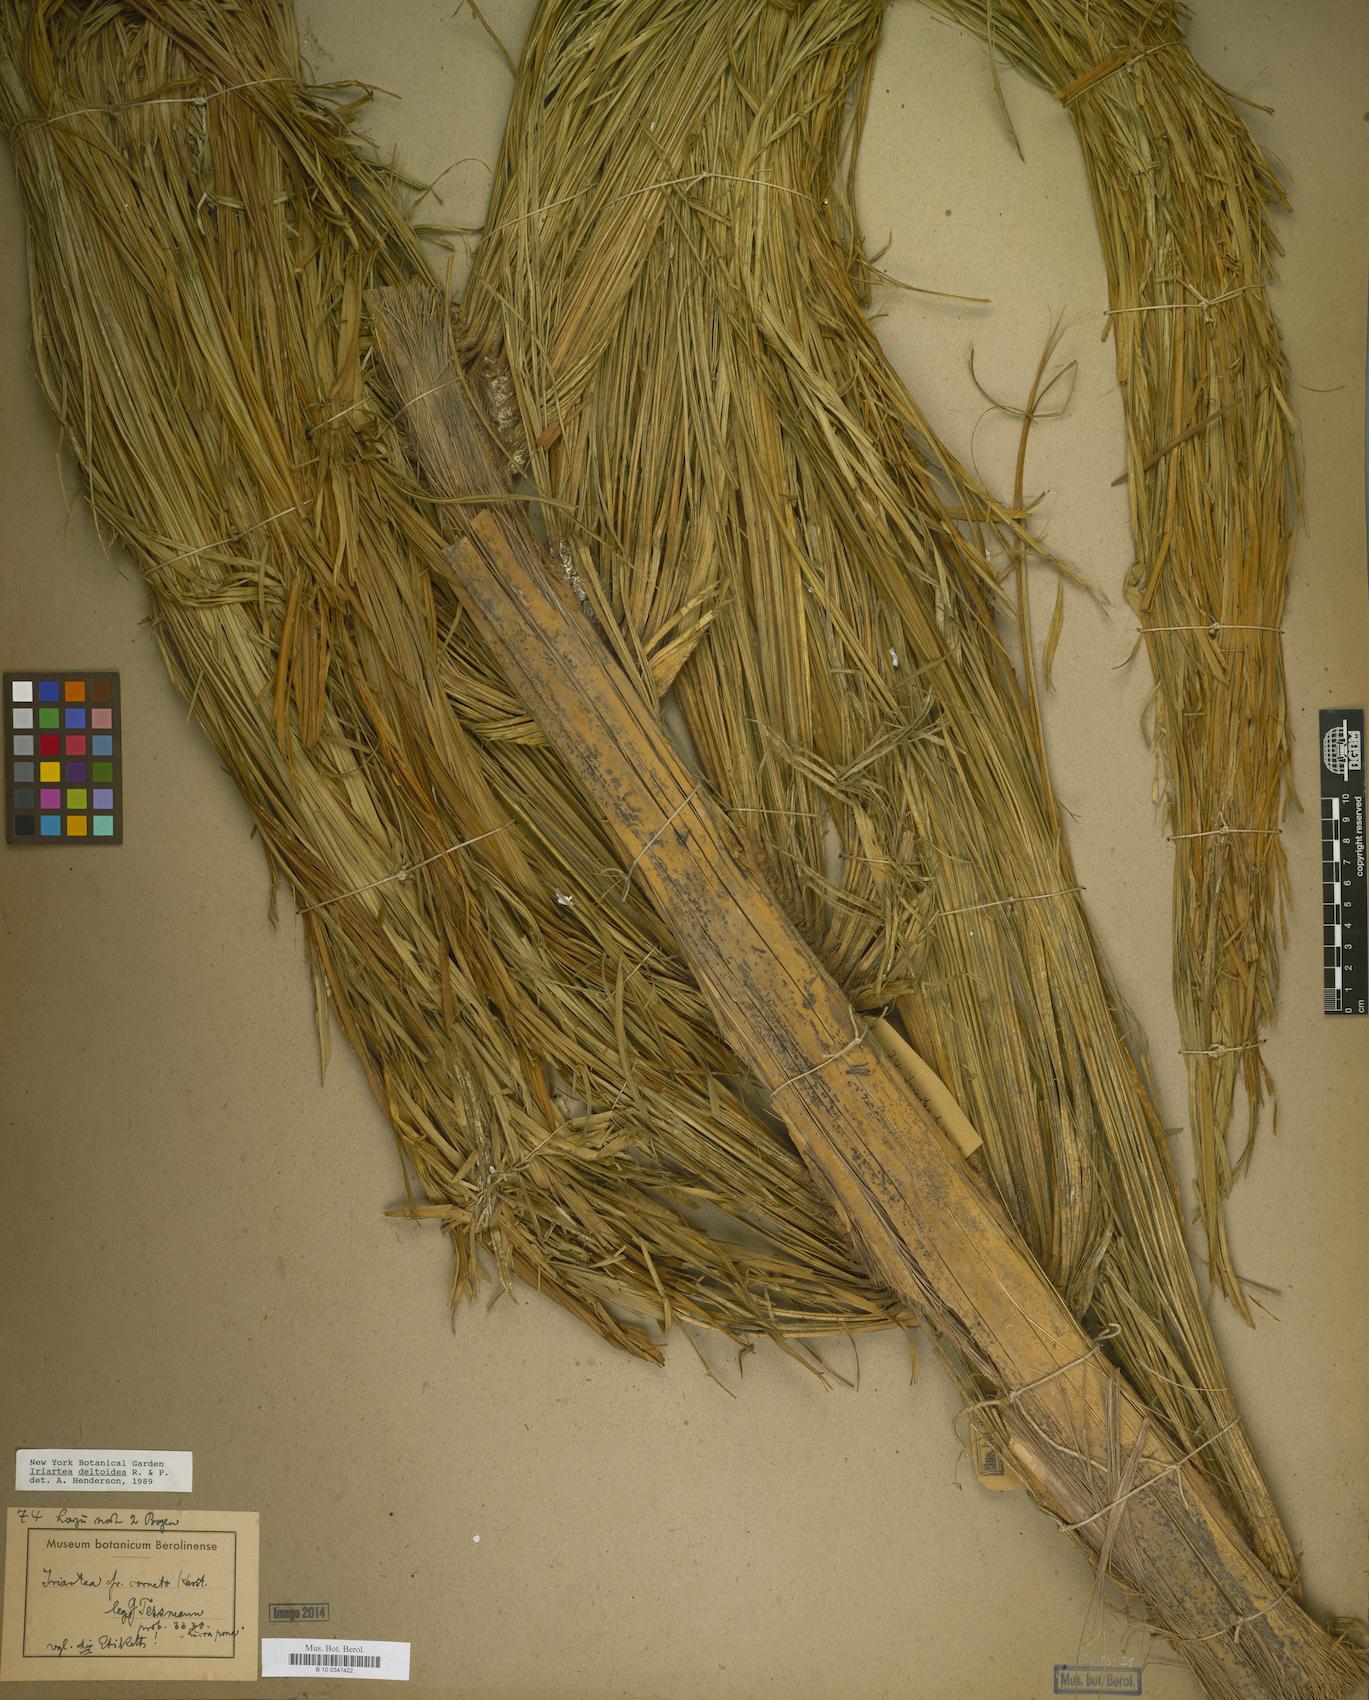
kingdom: Plantae
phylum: Tracheophyta
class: Liliopsida
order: Arecales
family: Arecaceae
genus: Iriartea
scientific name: Iriartea deltoidea
